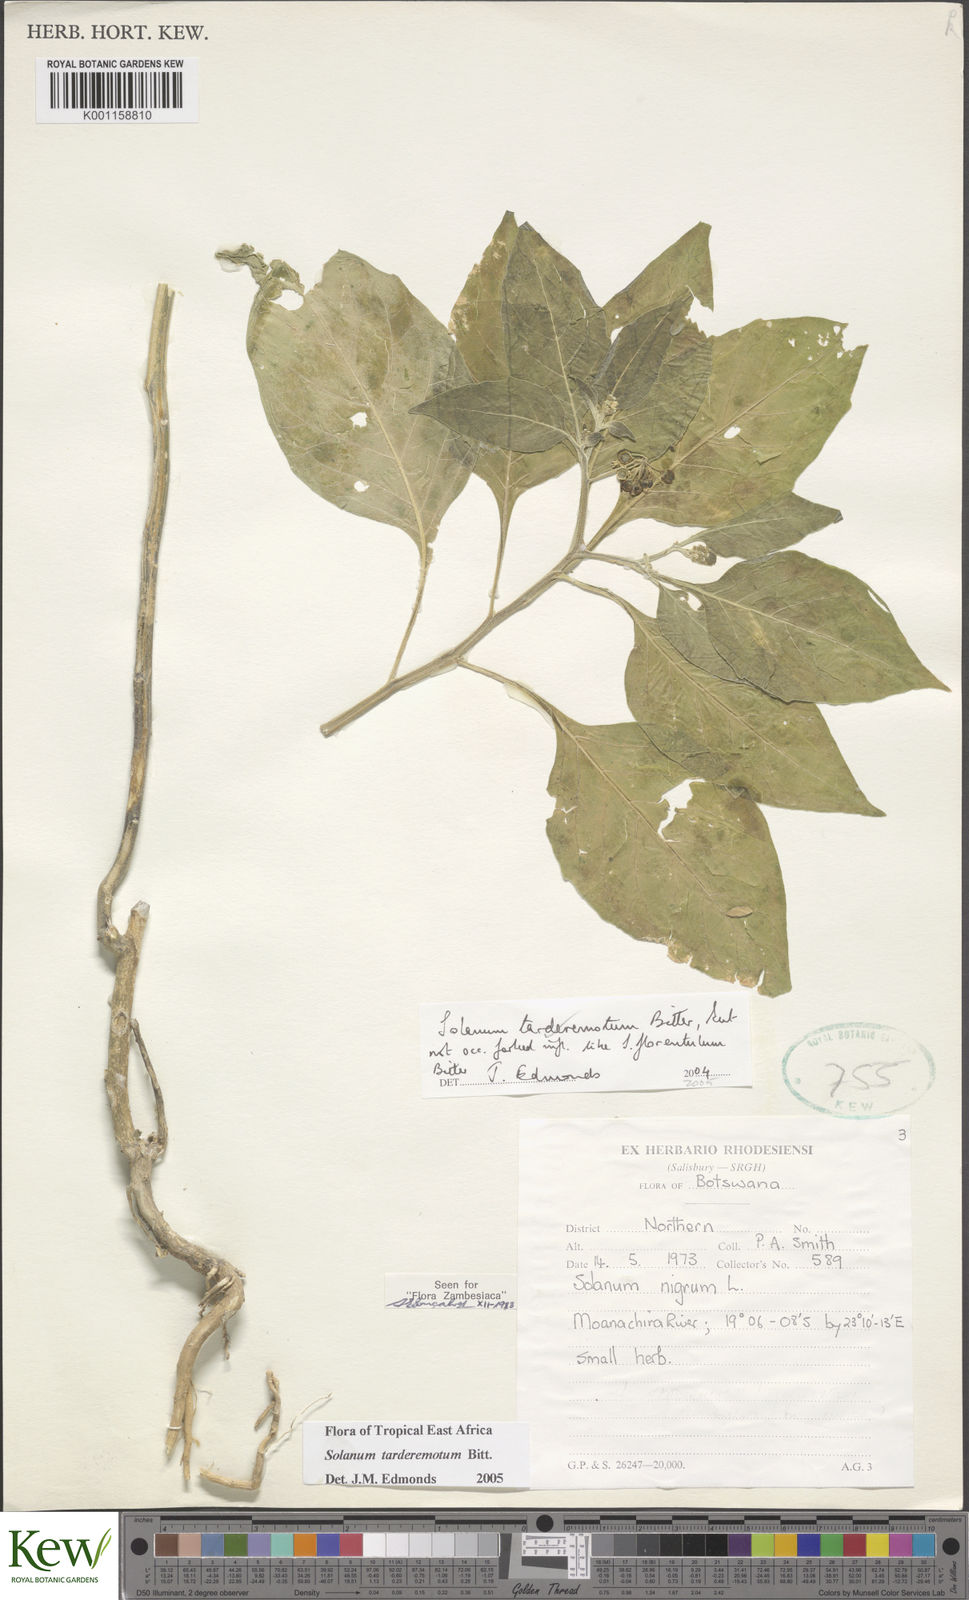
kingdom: Plantae
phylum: Tracheophyta
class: Magnoliopsida
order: Solanales
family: Solanaceae
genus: Solanum
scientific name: Solanum tarderemotum
